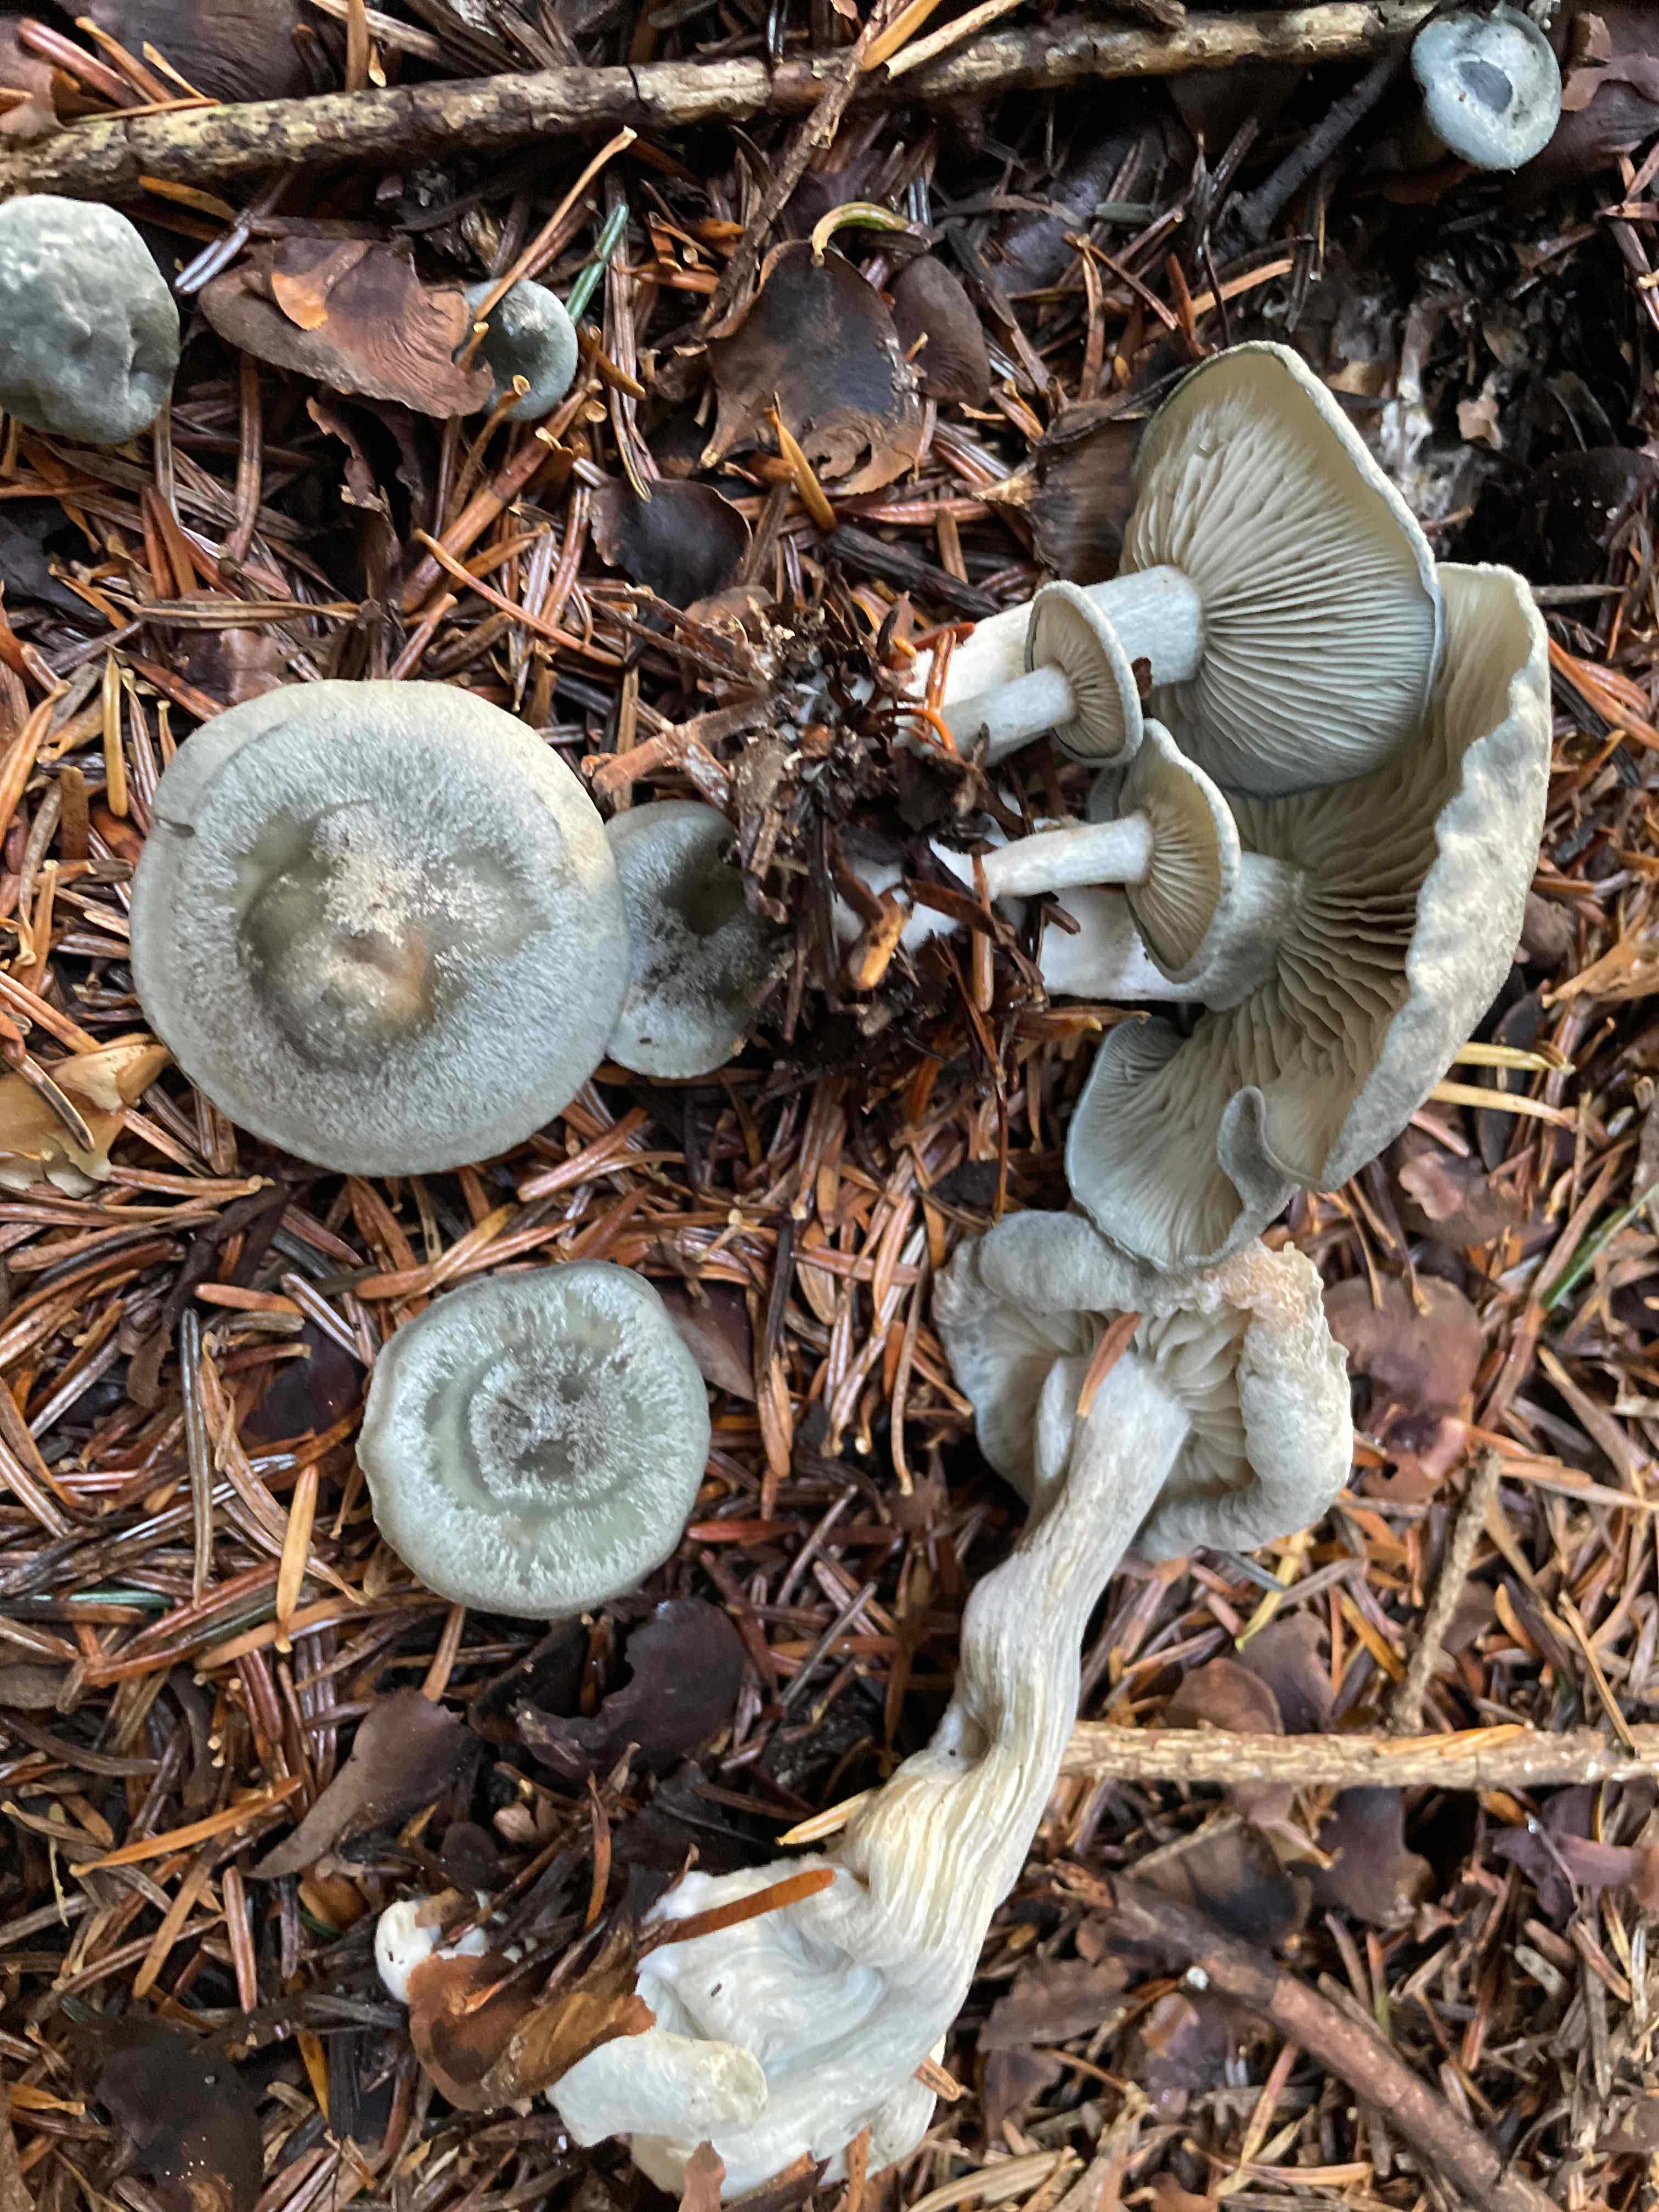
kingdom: Fungi
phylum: Basidiomycota
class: Agaricomycetes
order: Agaricales
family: Tricholomataceae
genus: Clitocybe
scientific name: Clitocybe odora
